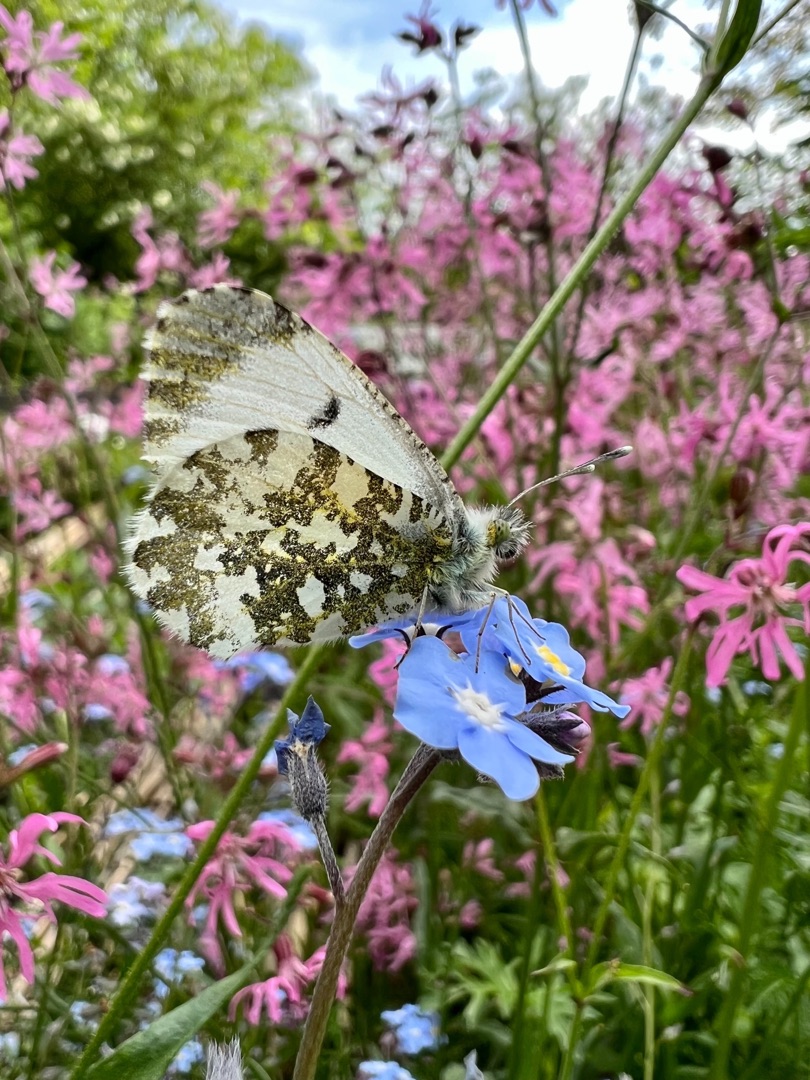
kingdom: Animalia
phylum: Arthropoda
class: Insecta
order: Lepidoptera
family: Pieridae
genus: Anthocharis
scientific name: Anthocharis cardamines
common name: Aurora
